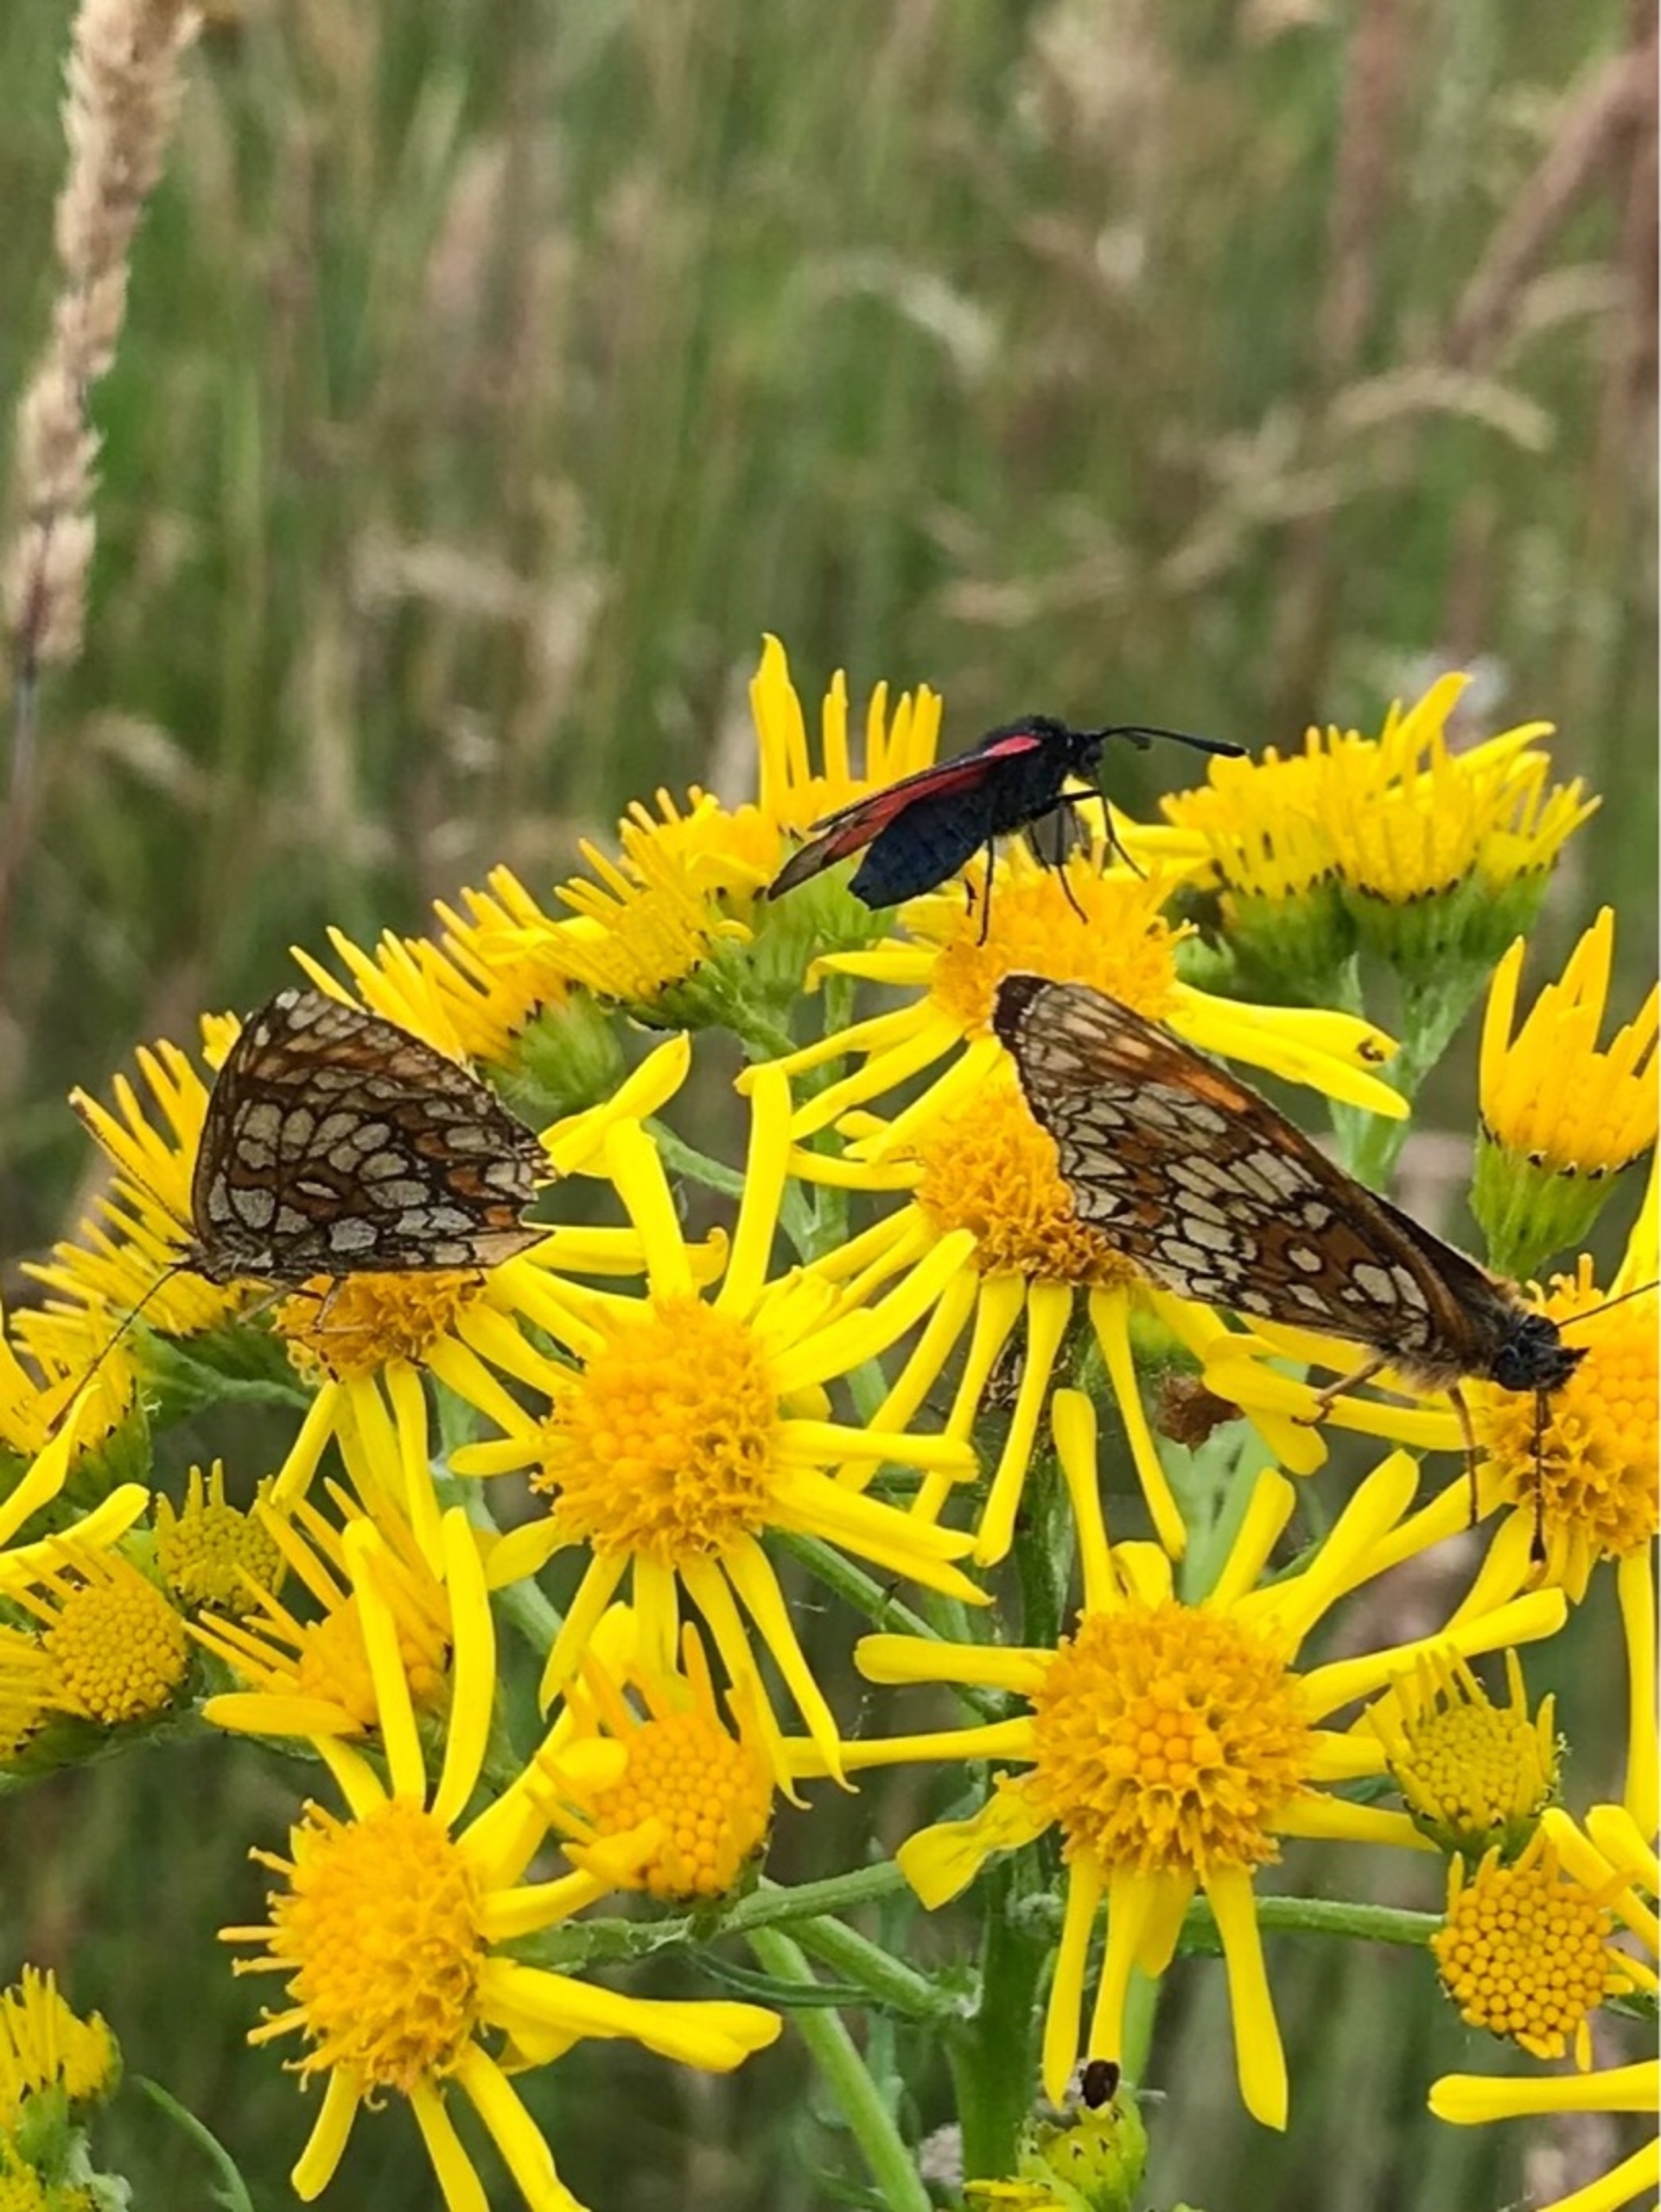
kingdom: Animalia
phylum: Arthropoda
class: Insecta
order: Lepidoptera
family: Nymphalidae
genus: Mellicta
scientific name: Mellicta athalia
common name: Brun pletvinge
